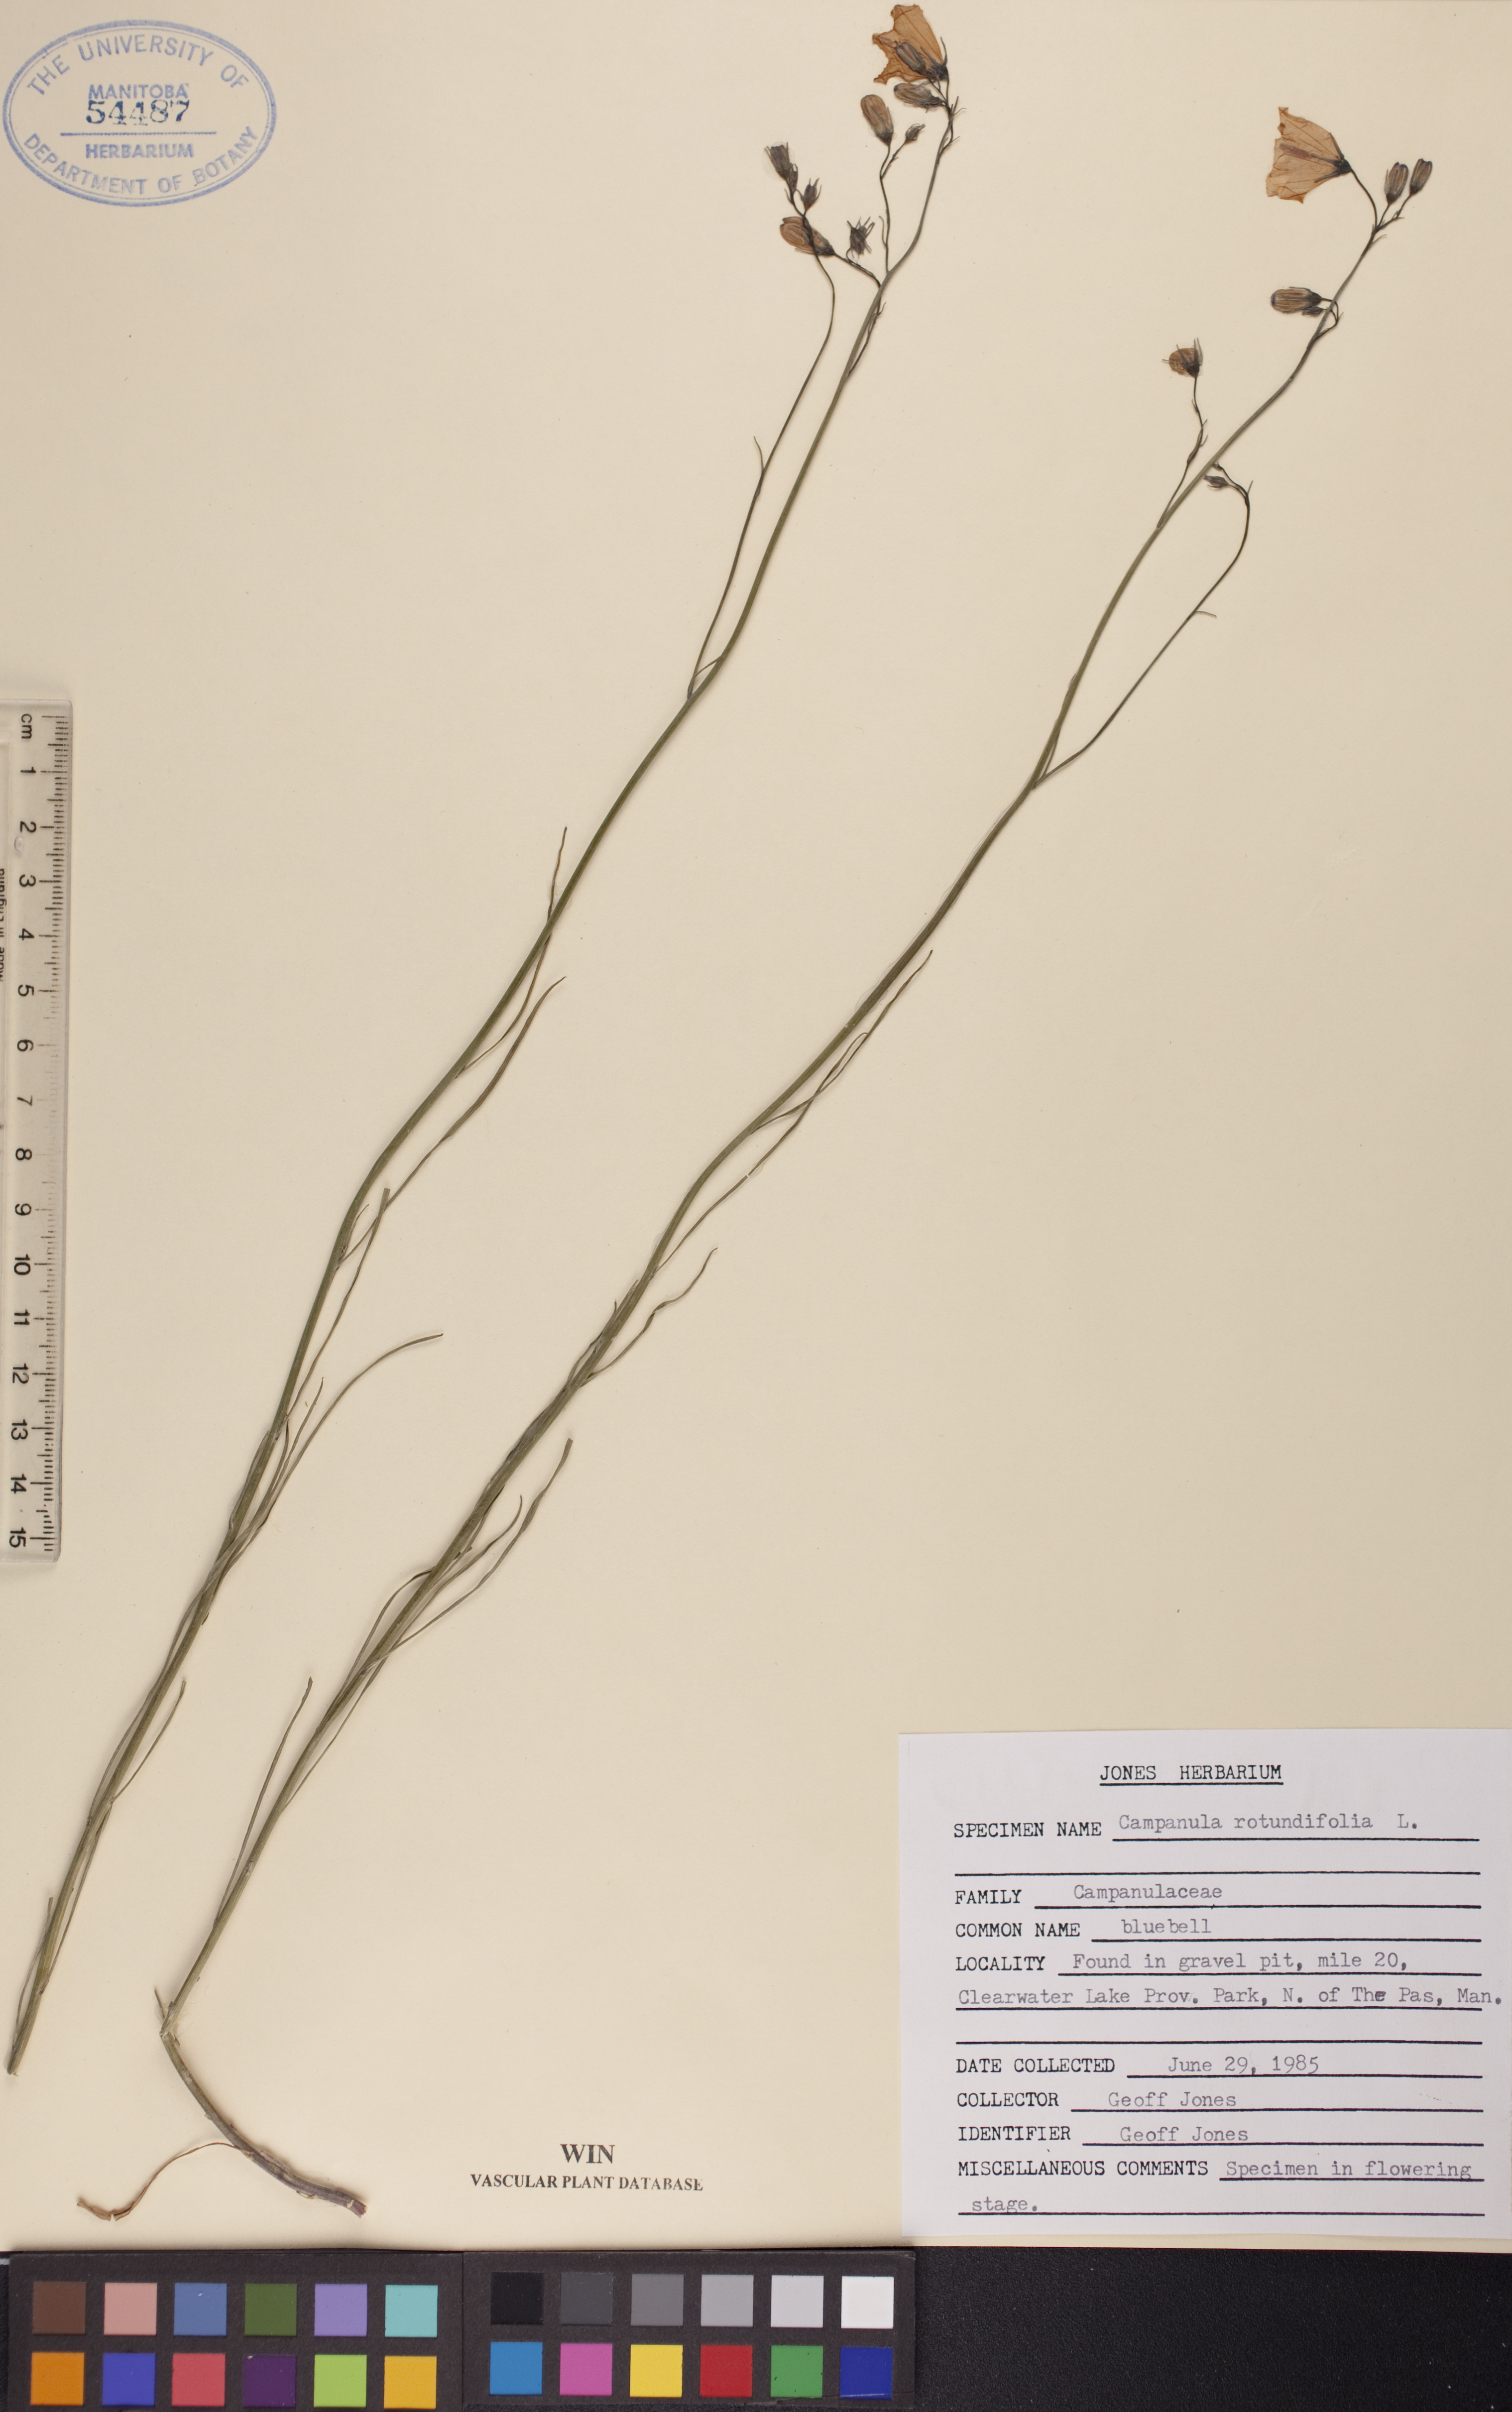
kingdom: Plantae
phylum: Tracheophyta
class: Magnoliopsida
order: Asterales
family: Campanulaceae
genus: Campanula
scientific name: Campanula rotundifolia
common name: Harebell
